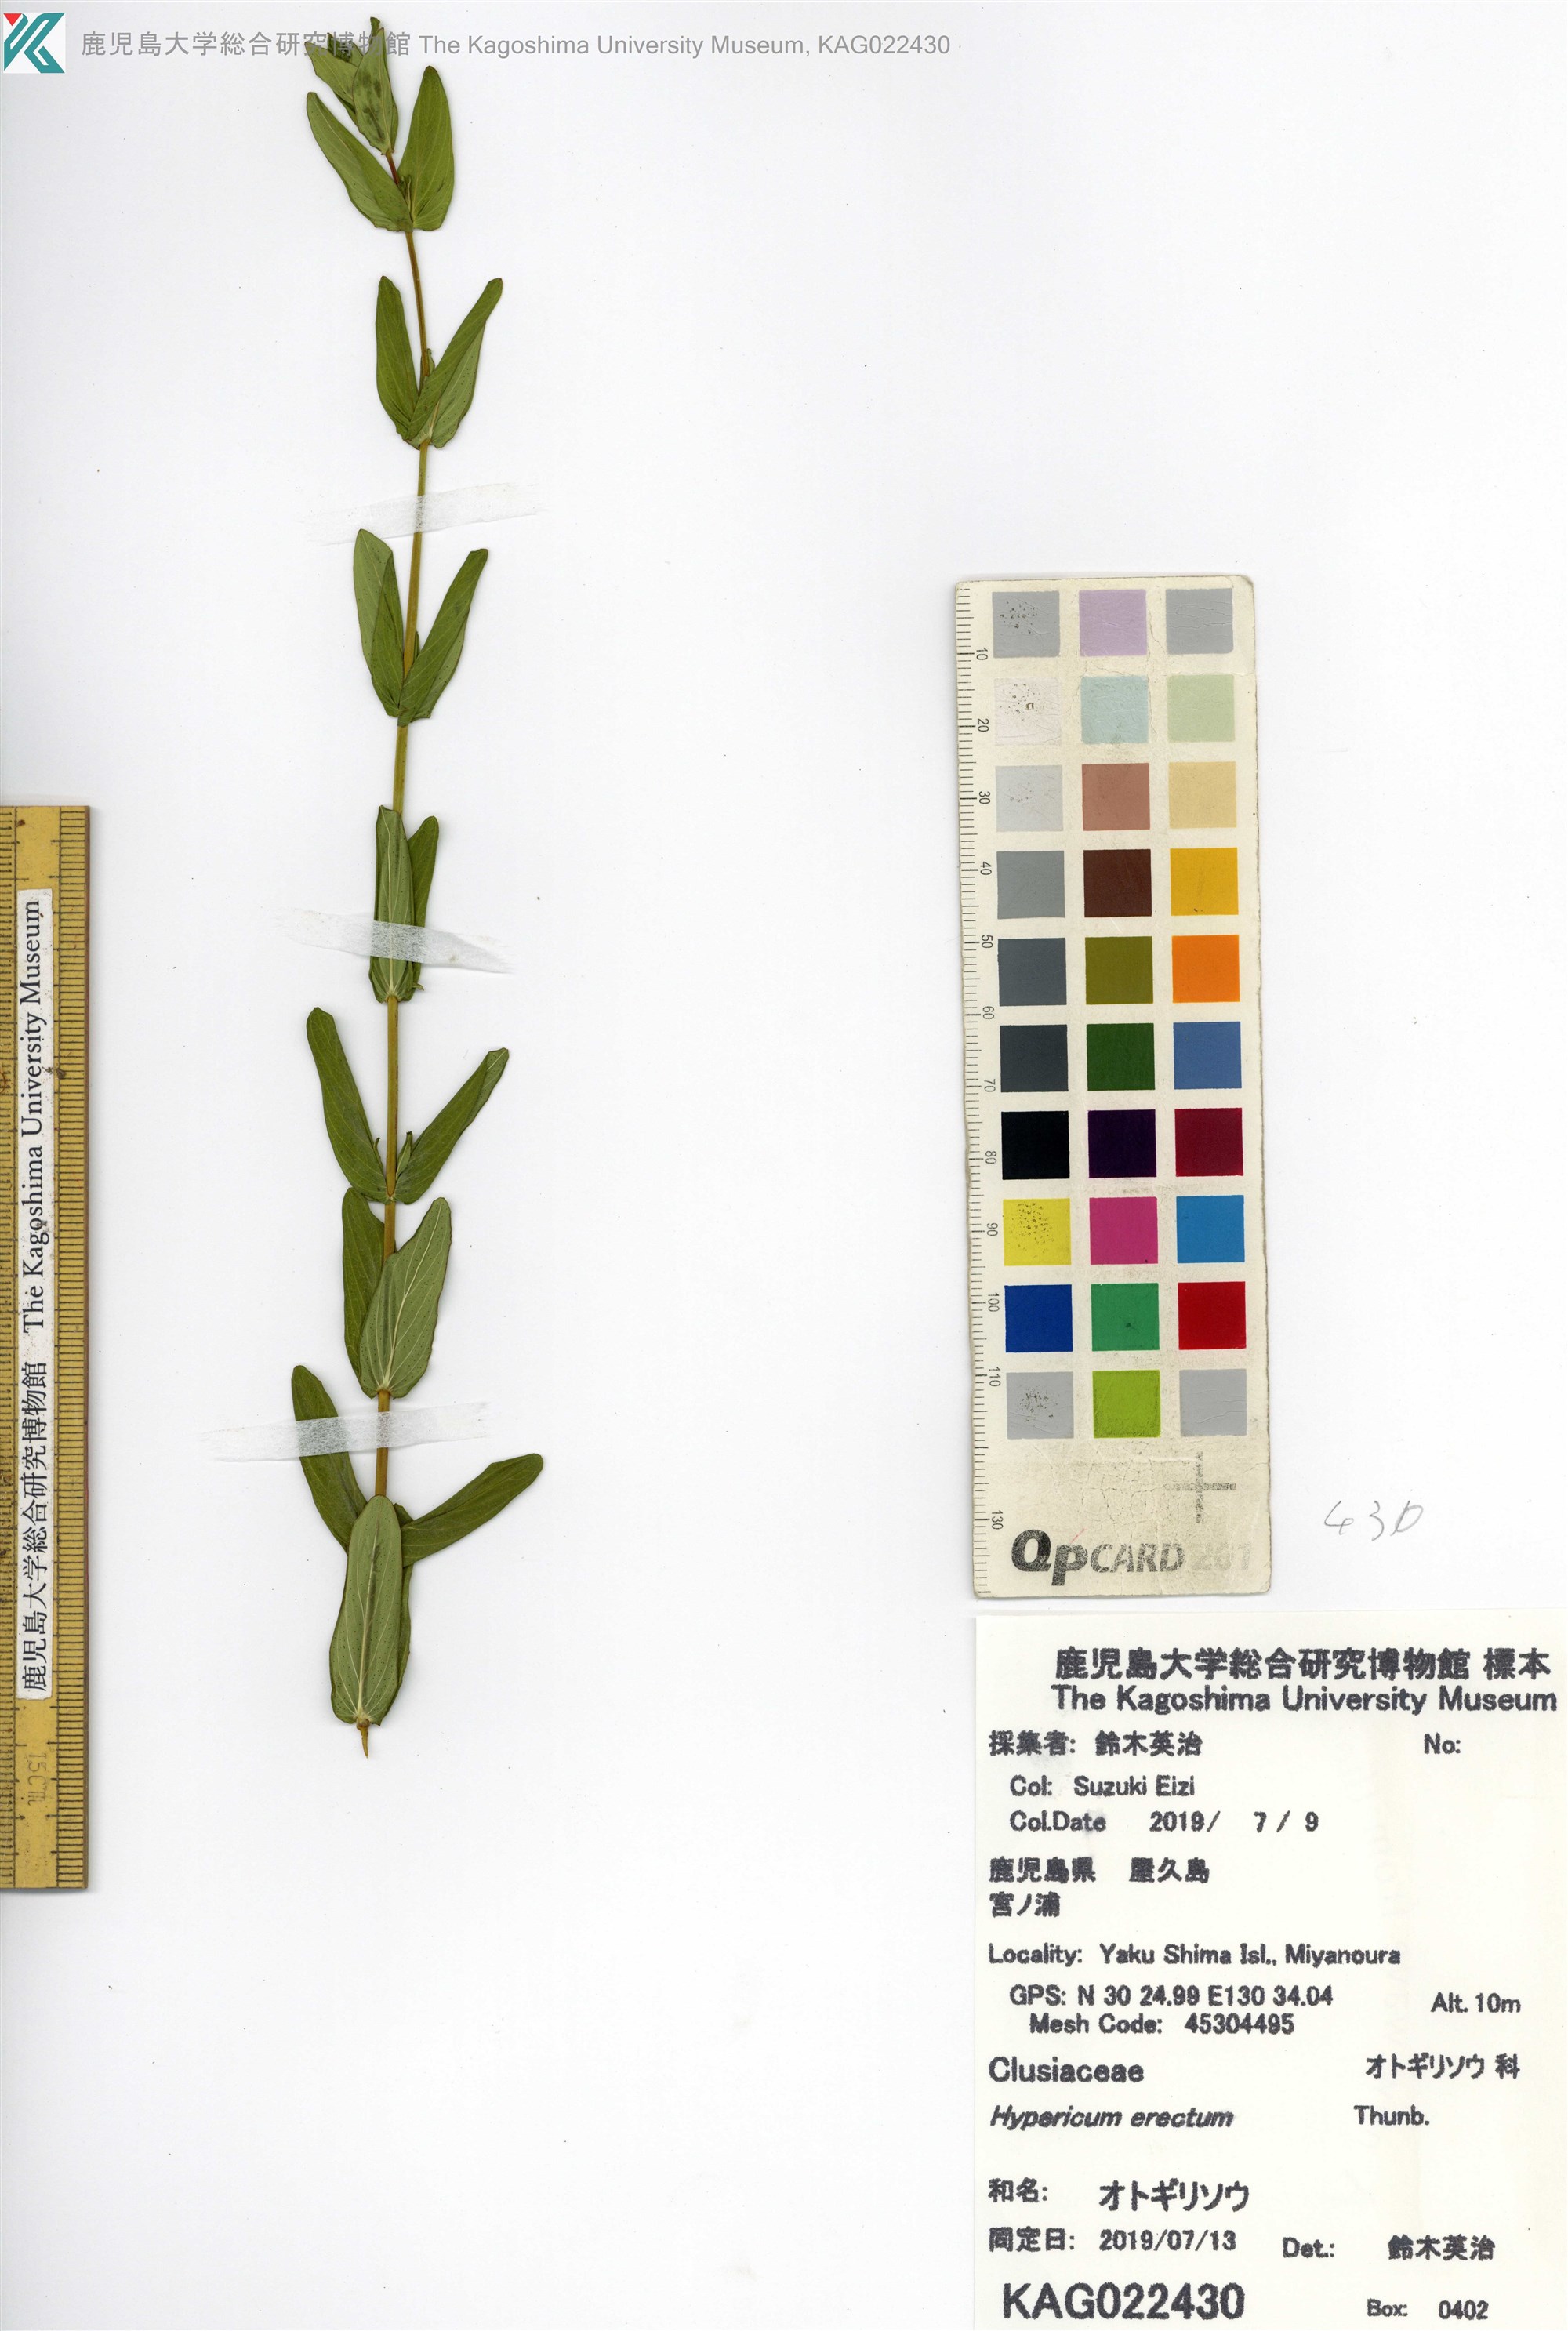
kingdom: Plantae
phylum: Tracheophyta
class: Magnoliopsida
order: Malpighiales
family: Hypericaceae
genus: Hypericum
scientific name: Hypericum erectum
